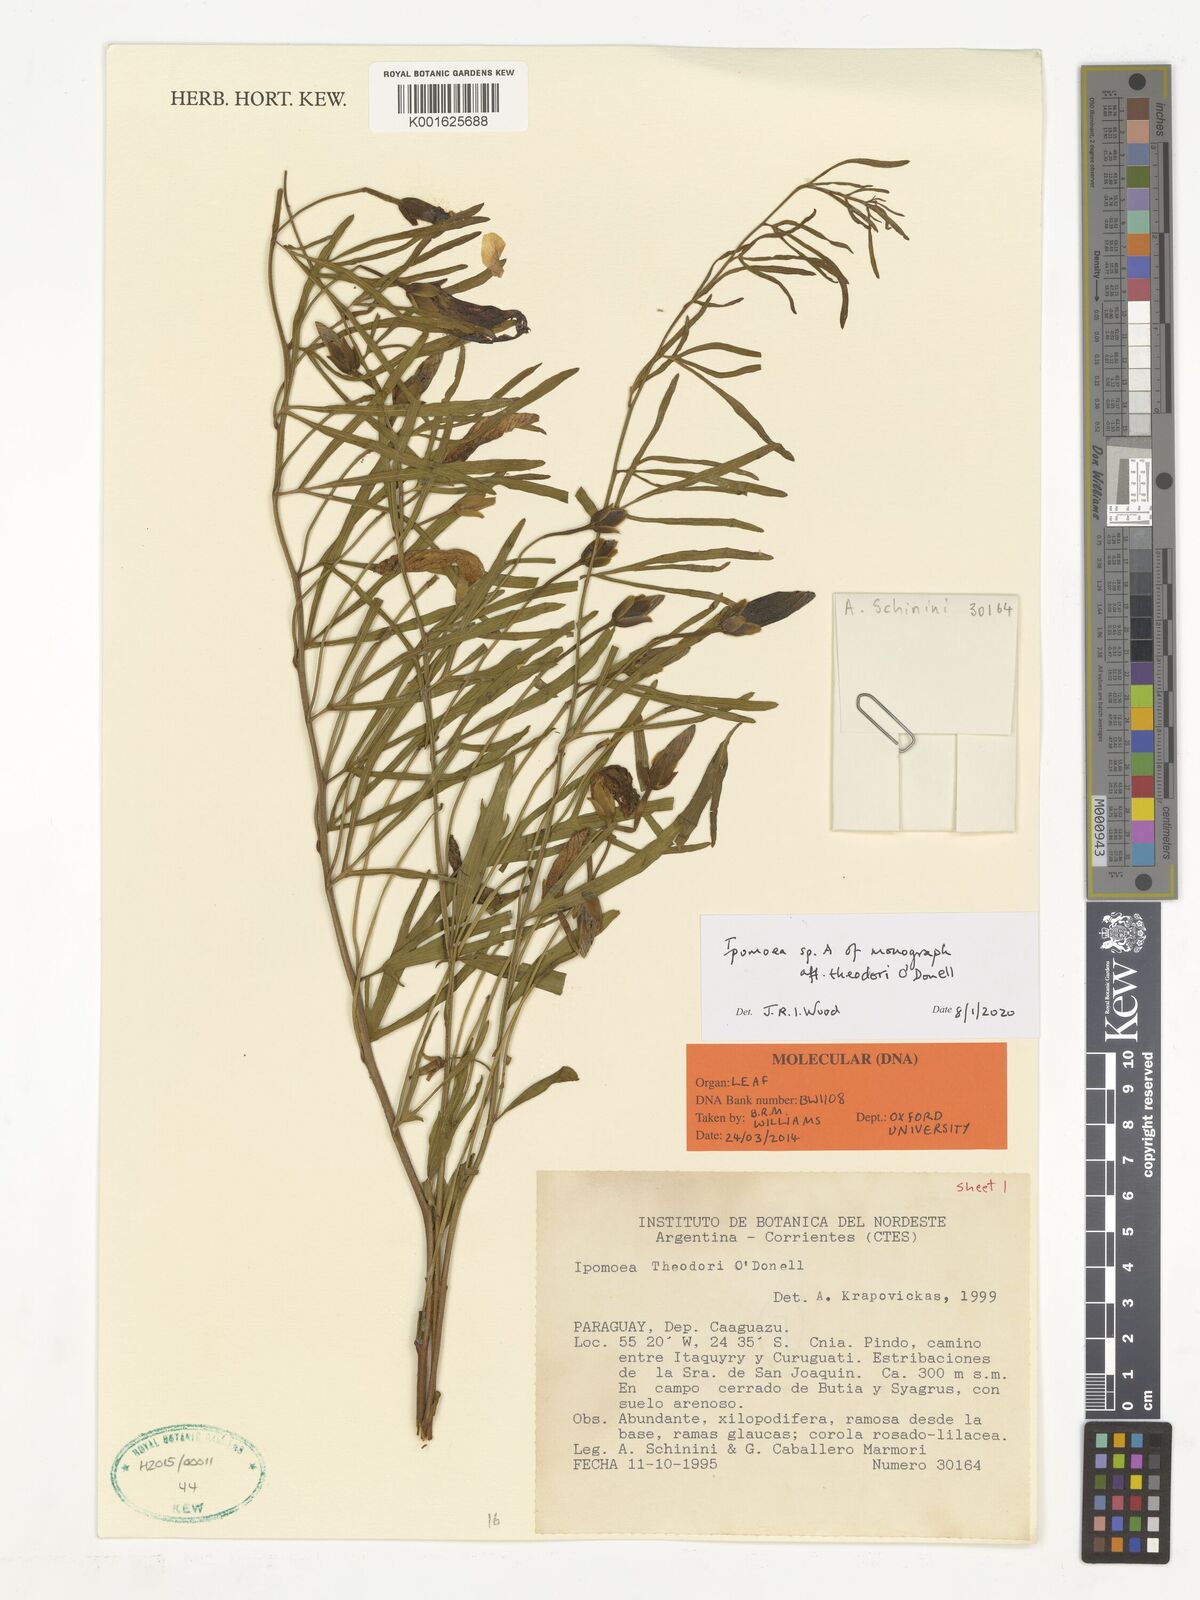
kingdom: Plantae
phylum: Tracheophyta
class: Magnoliopsida
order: Solanales
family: Convolvulaceae
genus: Ipomoea
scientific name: Ipomoea theodori
